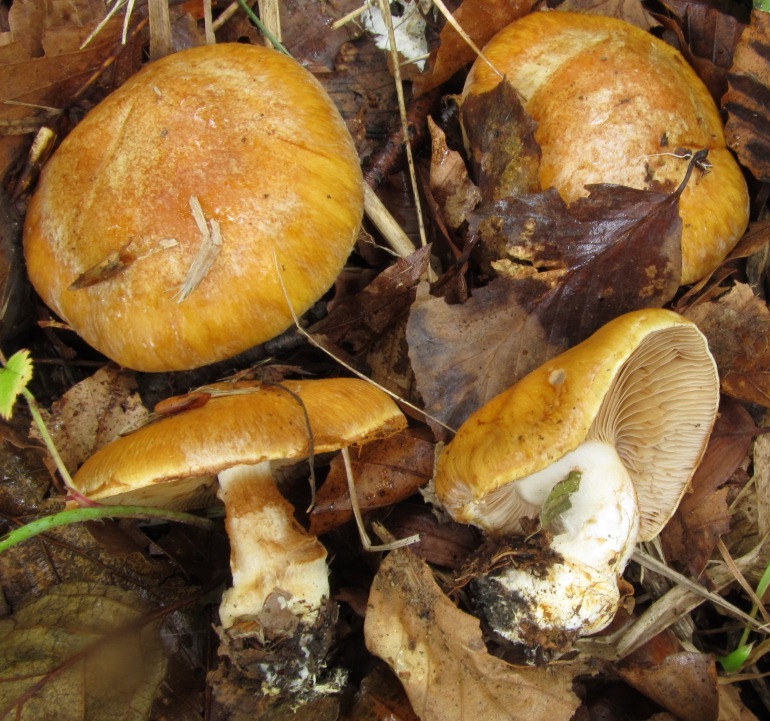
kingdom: Fungi
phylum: Basidiomycota
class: Agaricomycetes
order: Agaricales
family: Cortinariaceae
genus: Phlegmacium
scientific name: Phlegmacium subdecolorans
